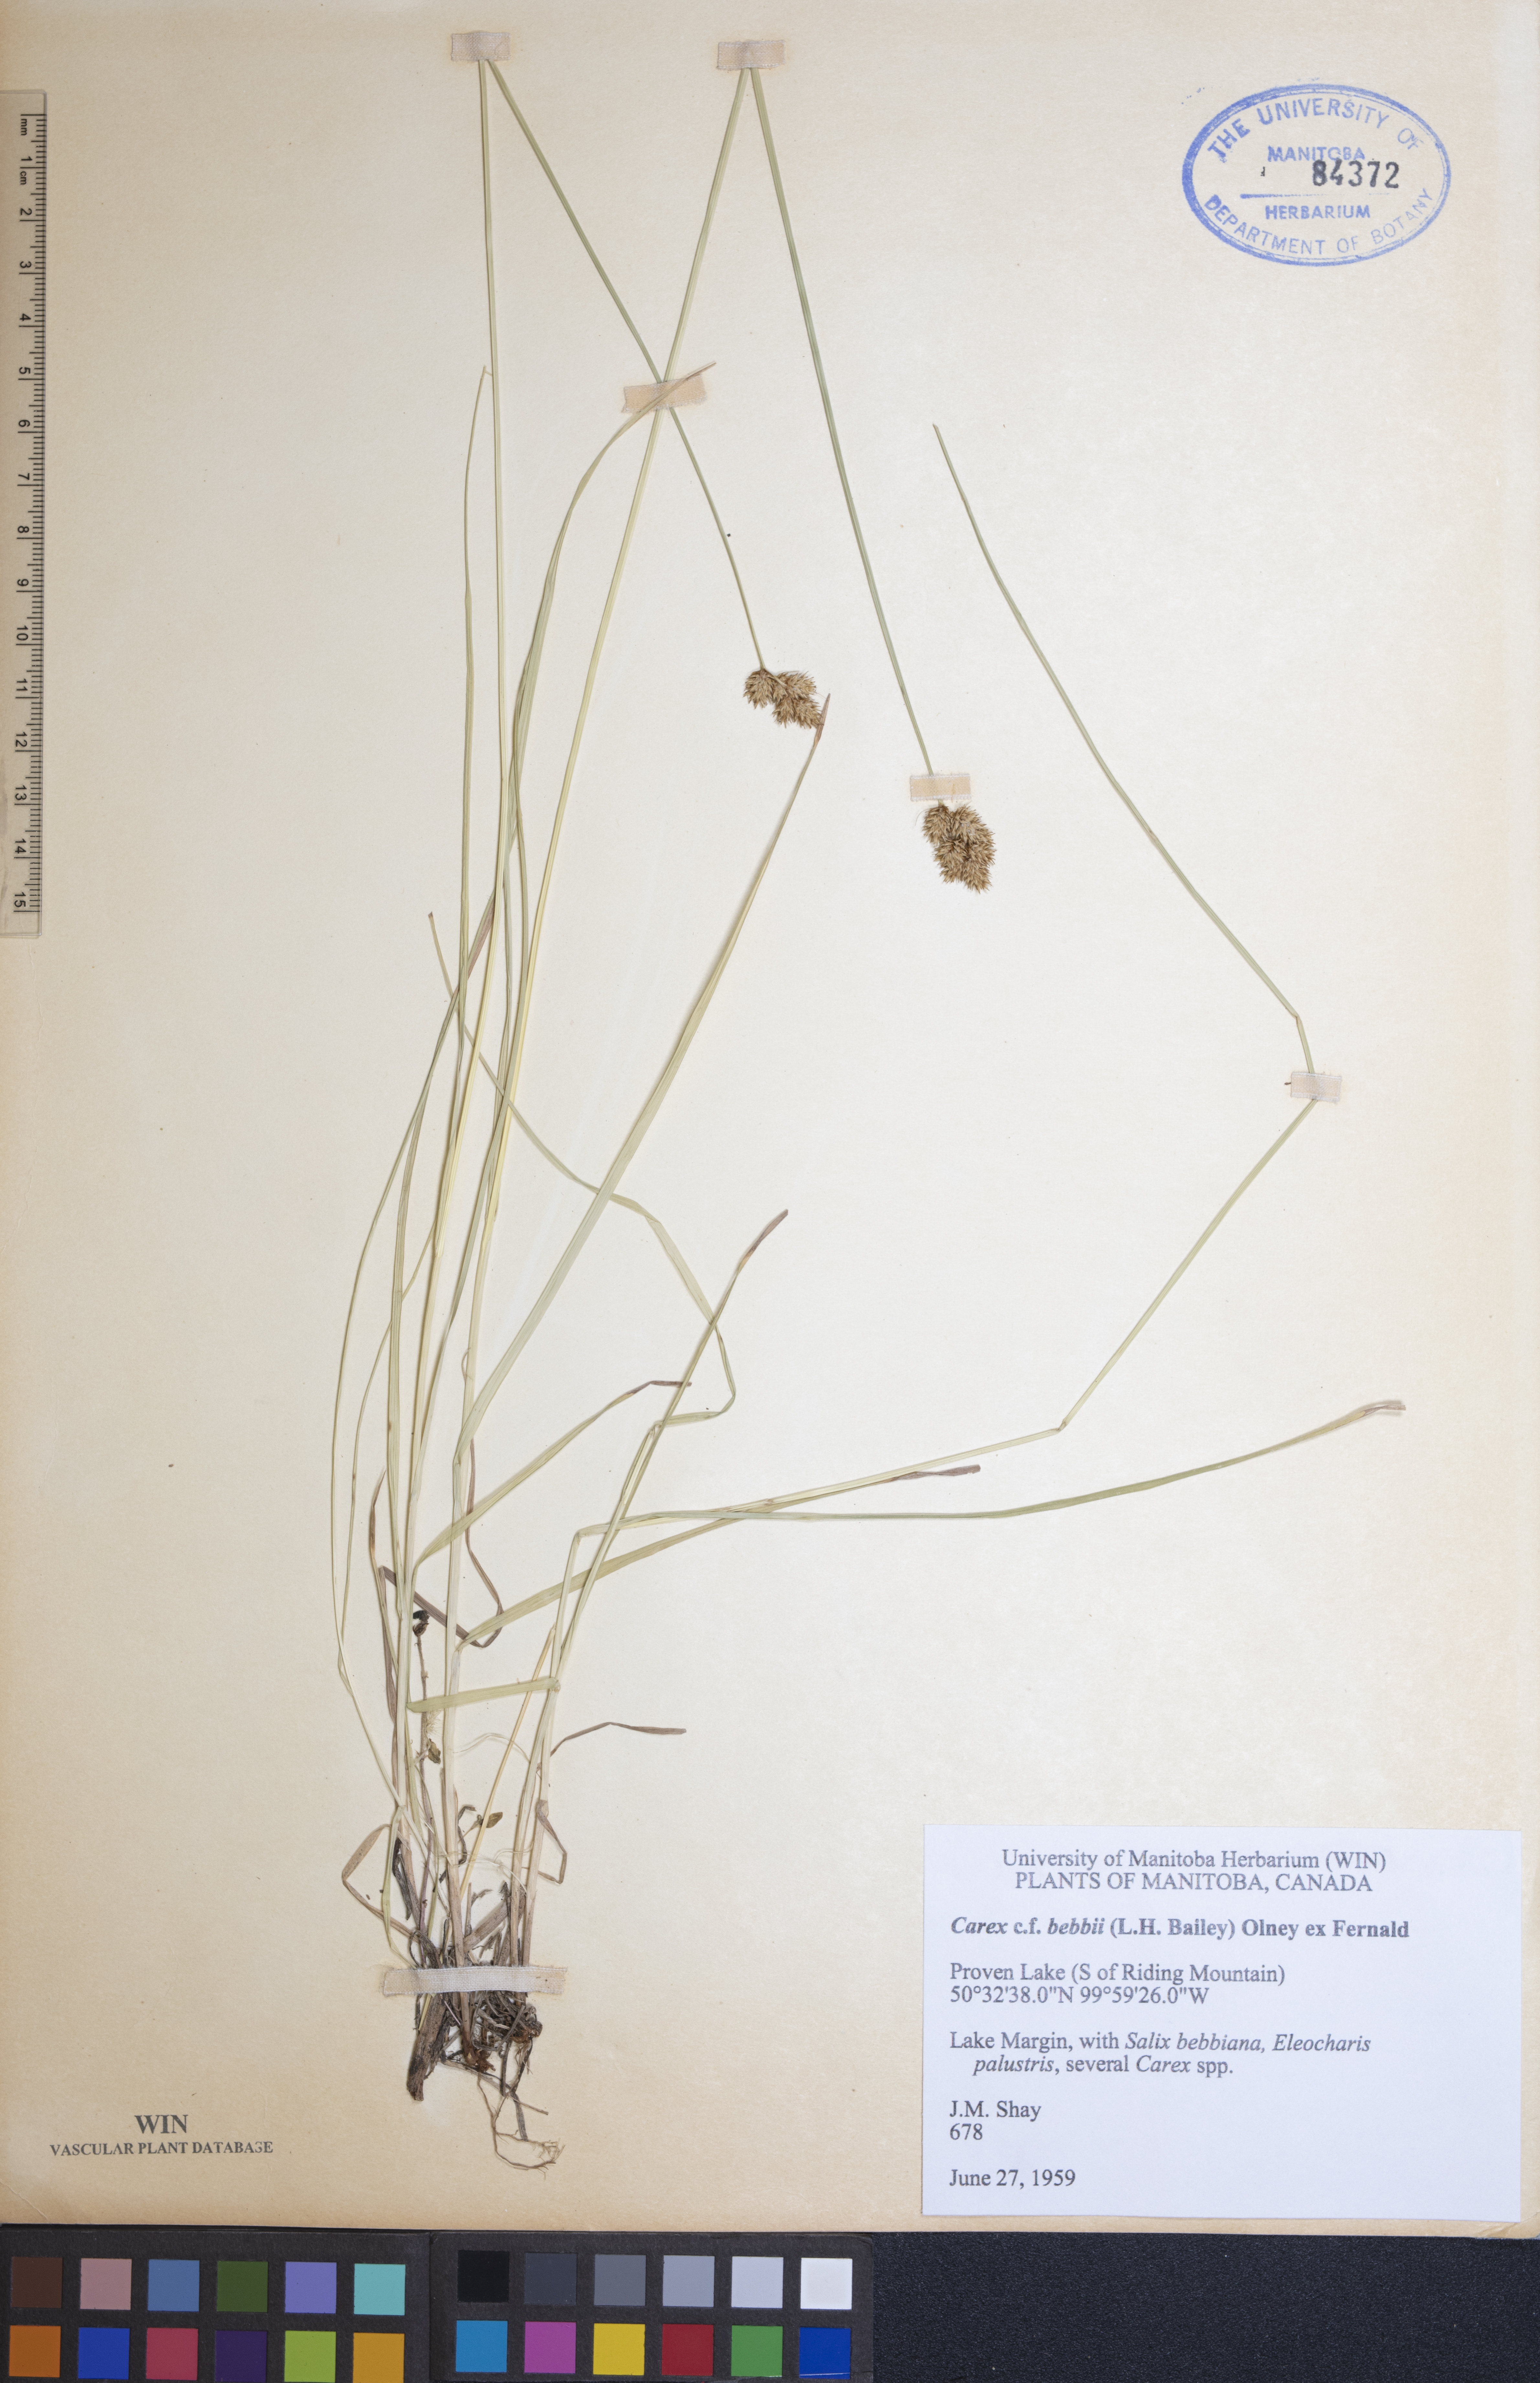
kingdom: Plantae
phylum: Tracheophyta
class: Liliopsida
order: Poales
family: Cyperaceae
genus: Carex
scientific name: Carex bebbii
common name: Bebb's sedge
